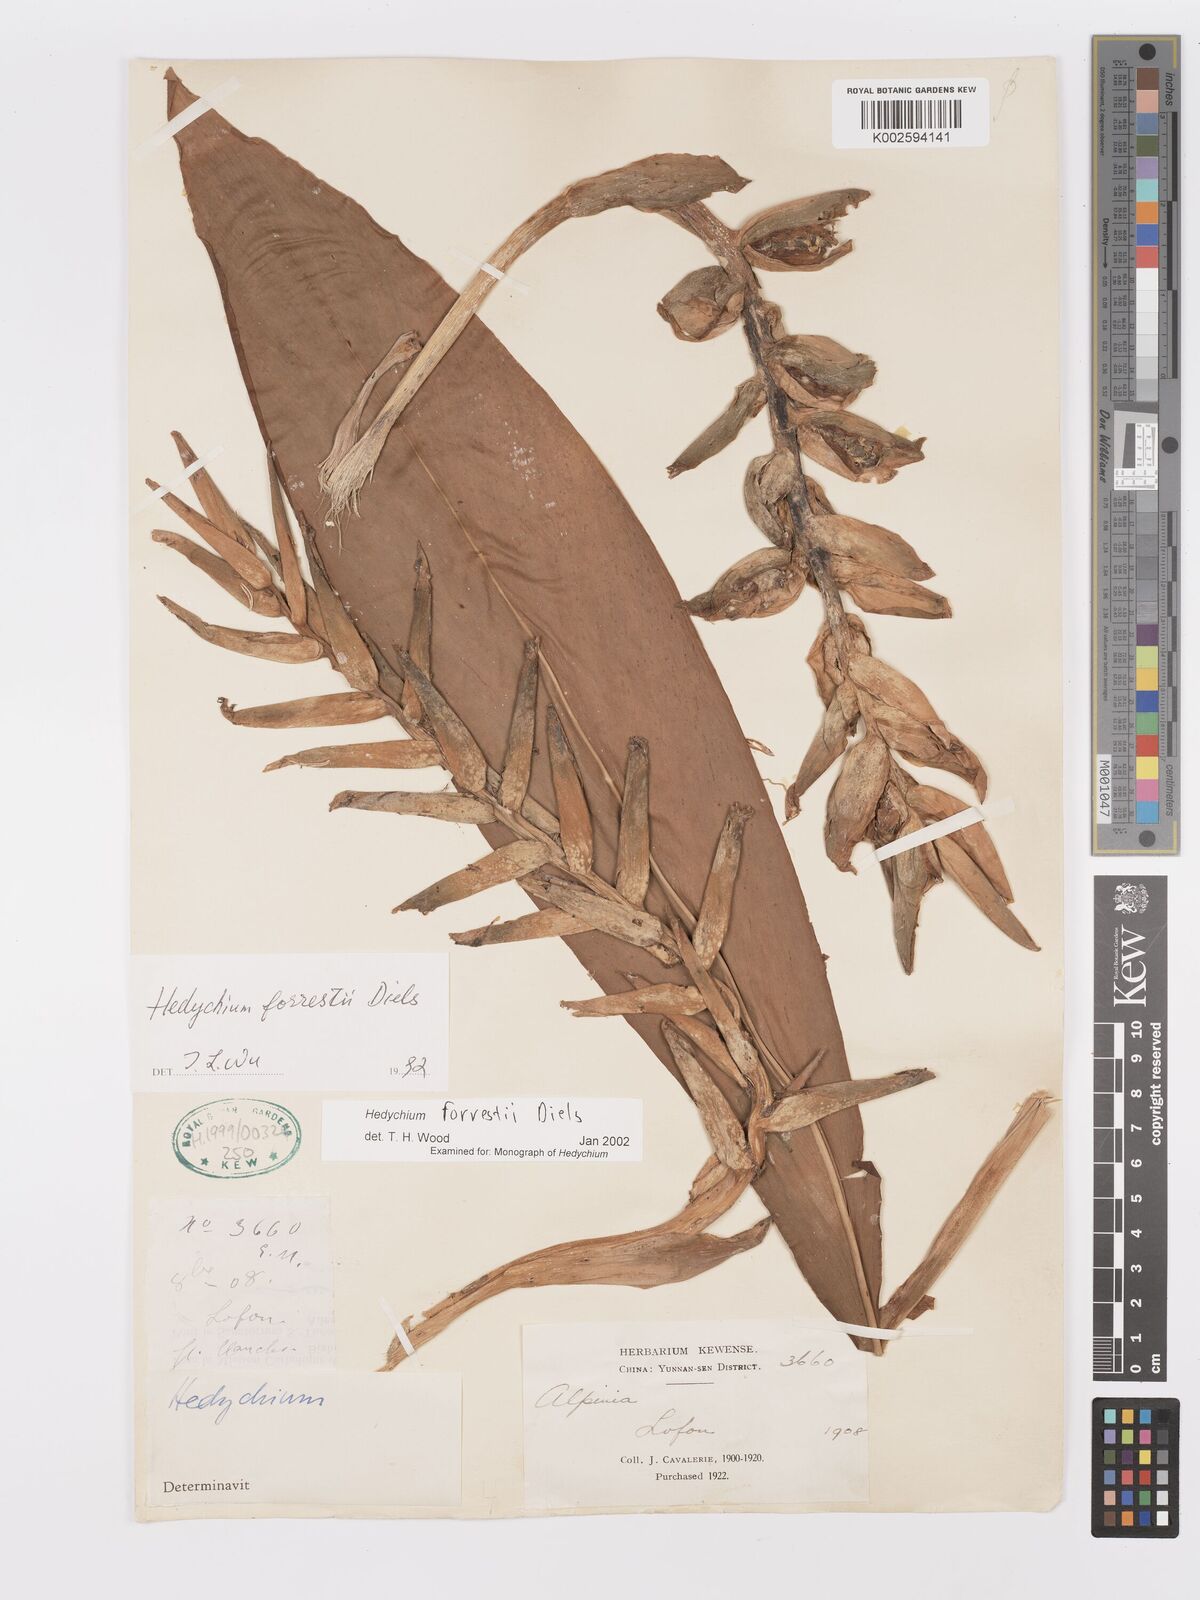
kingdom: Plantae
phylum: Tracheophyta
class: Liliopsida
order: Zingiberales
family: Zingiberaceae
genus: Hedychium
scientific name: Hedychium forrestii
